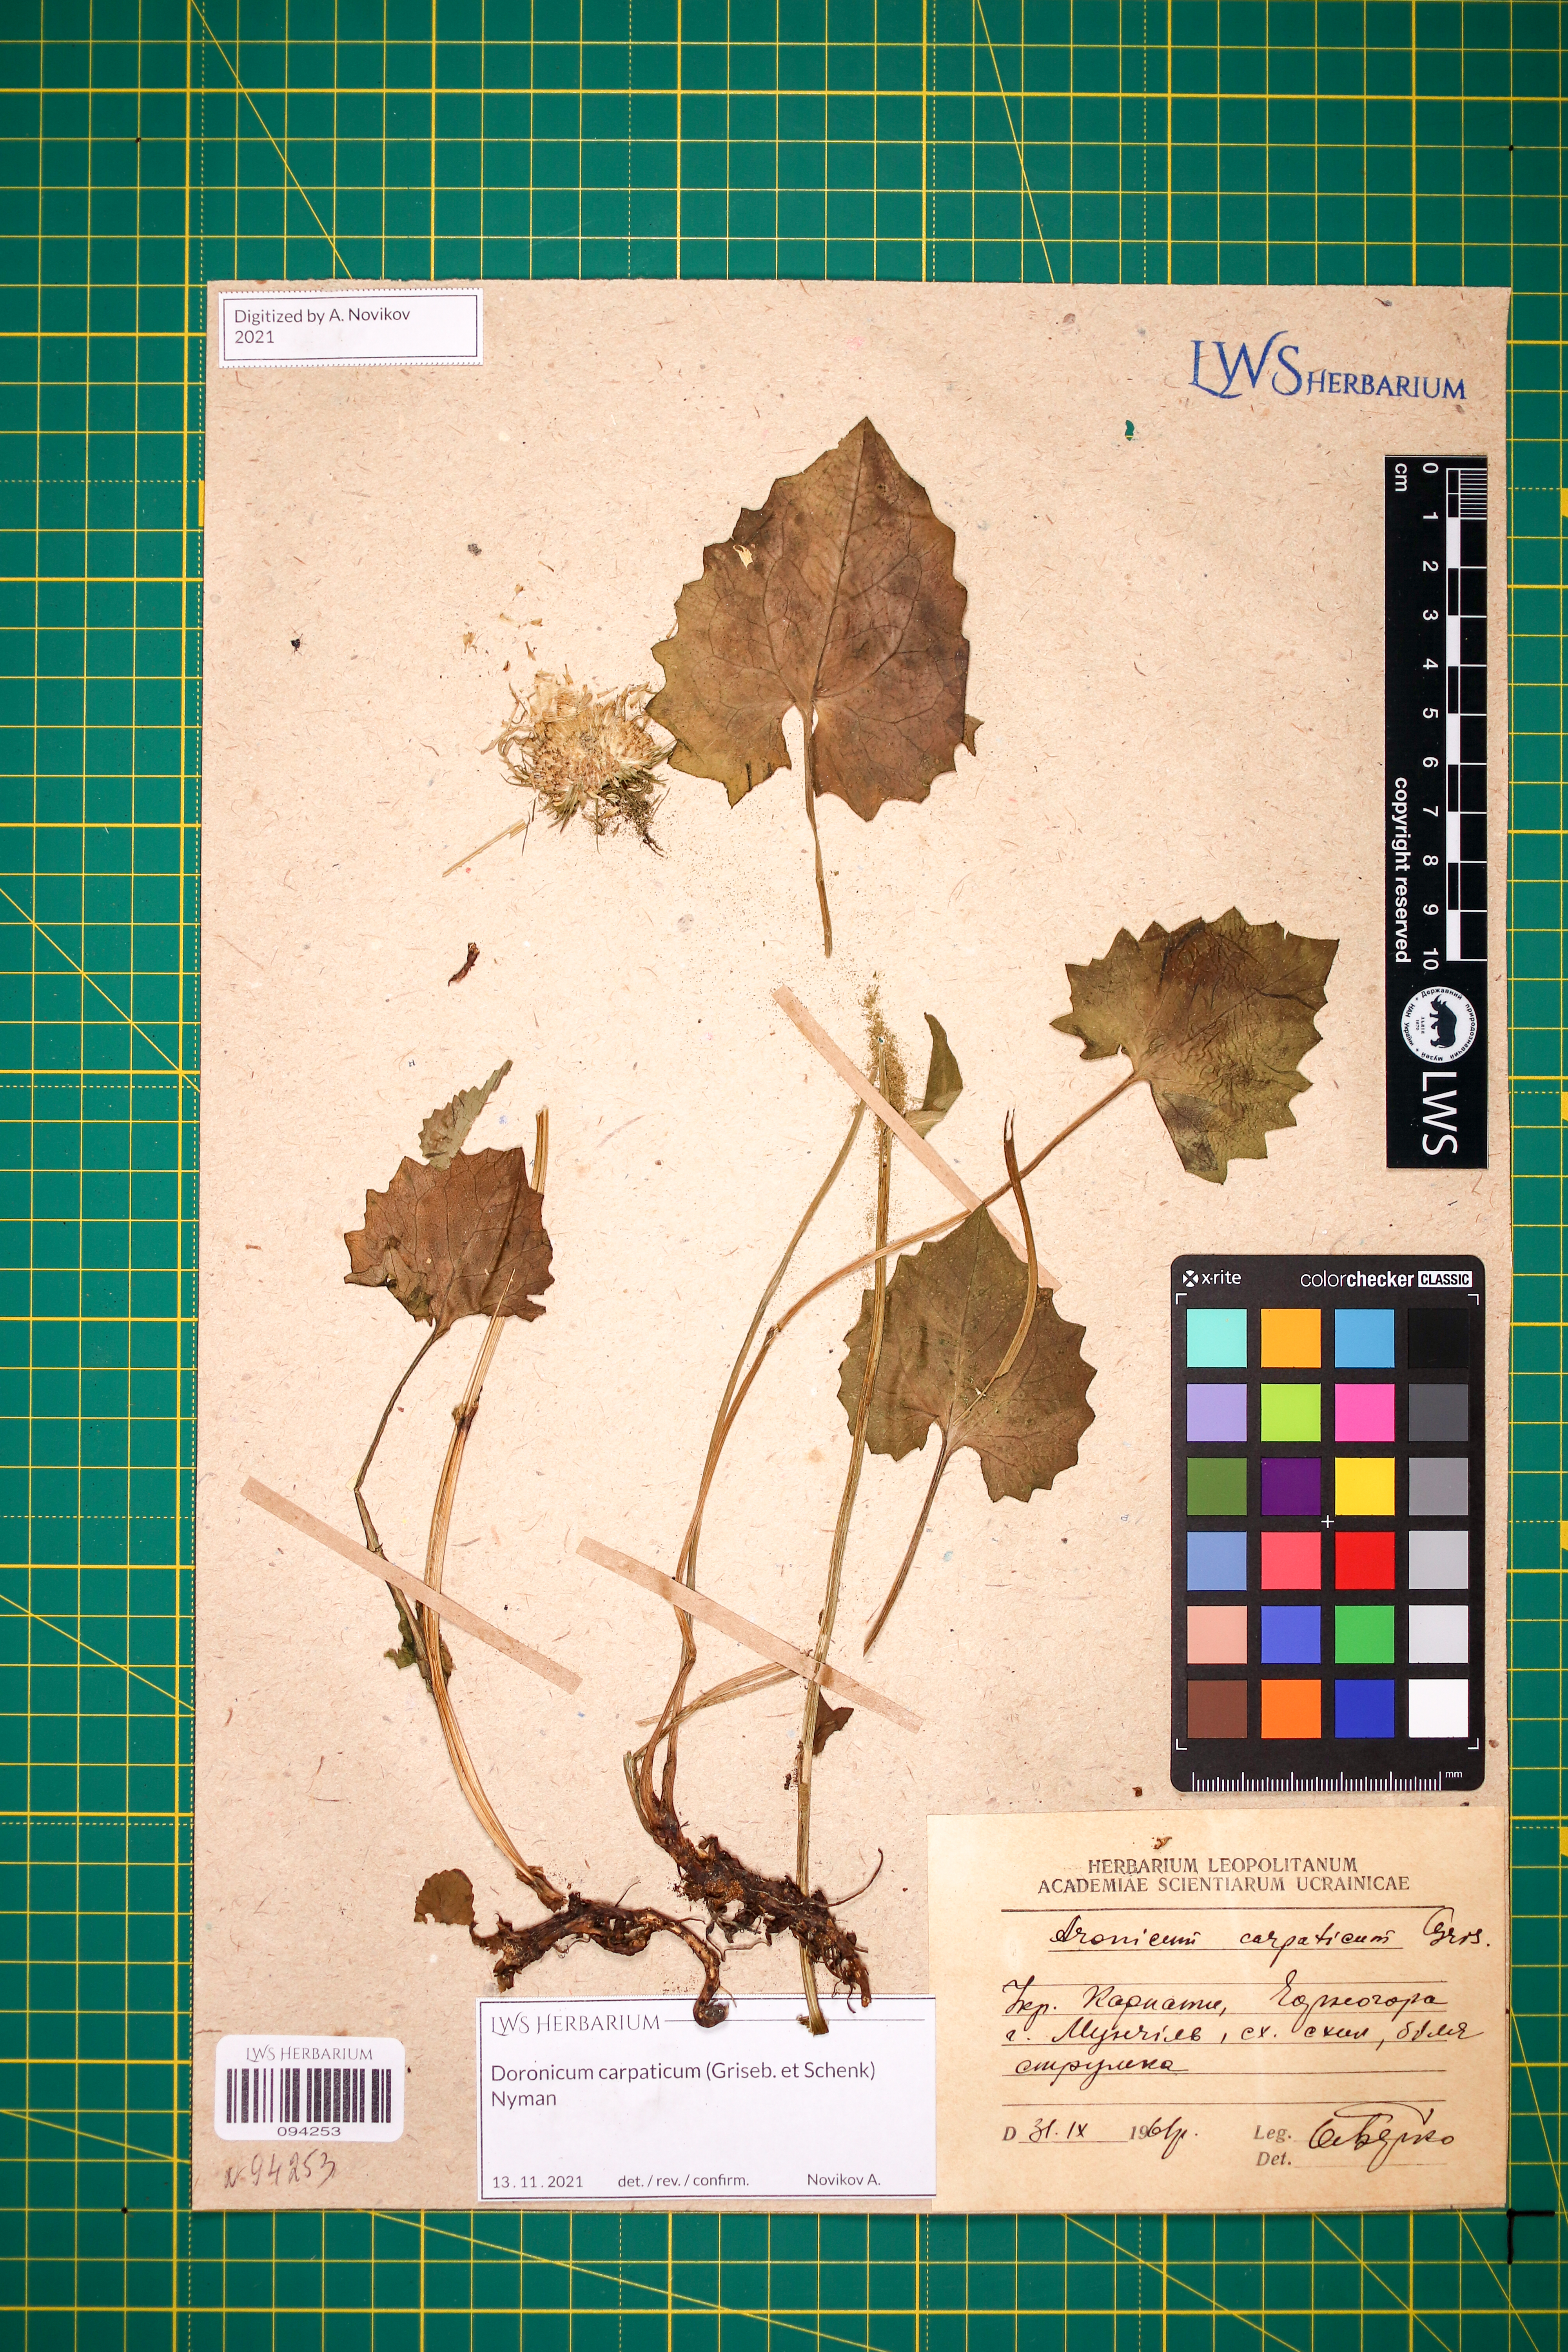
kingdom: Plantae
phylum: Tracheophyta
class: Magnoliopsida
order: Asterales
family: Asteraceae
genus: Doronicum
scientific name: Doronicum carpaticum
